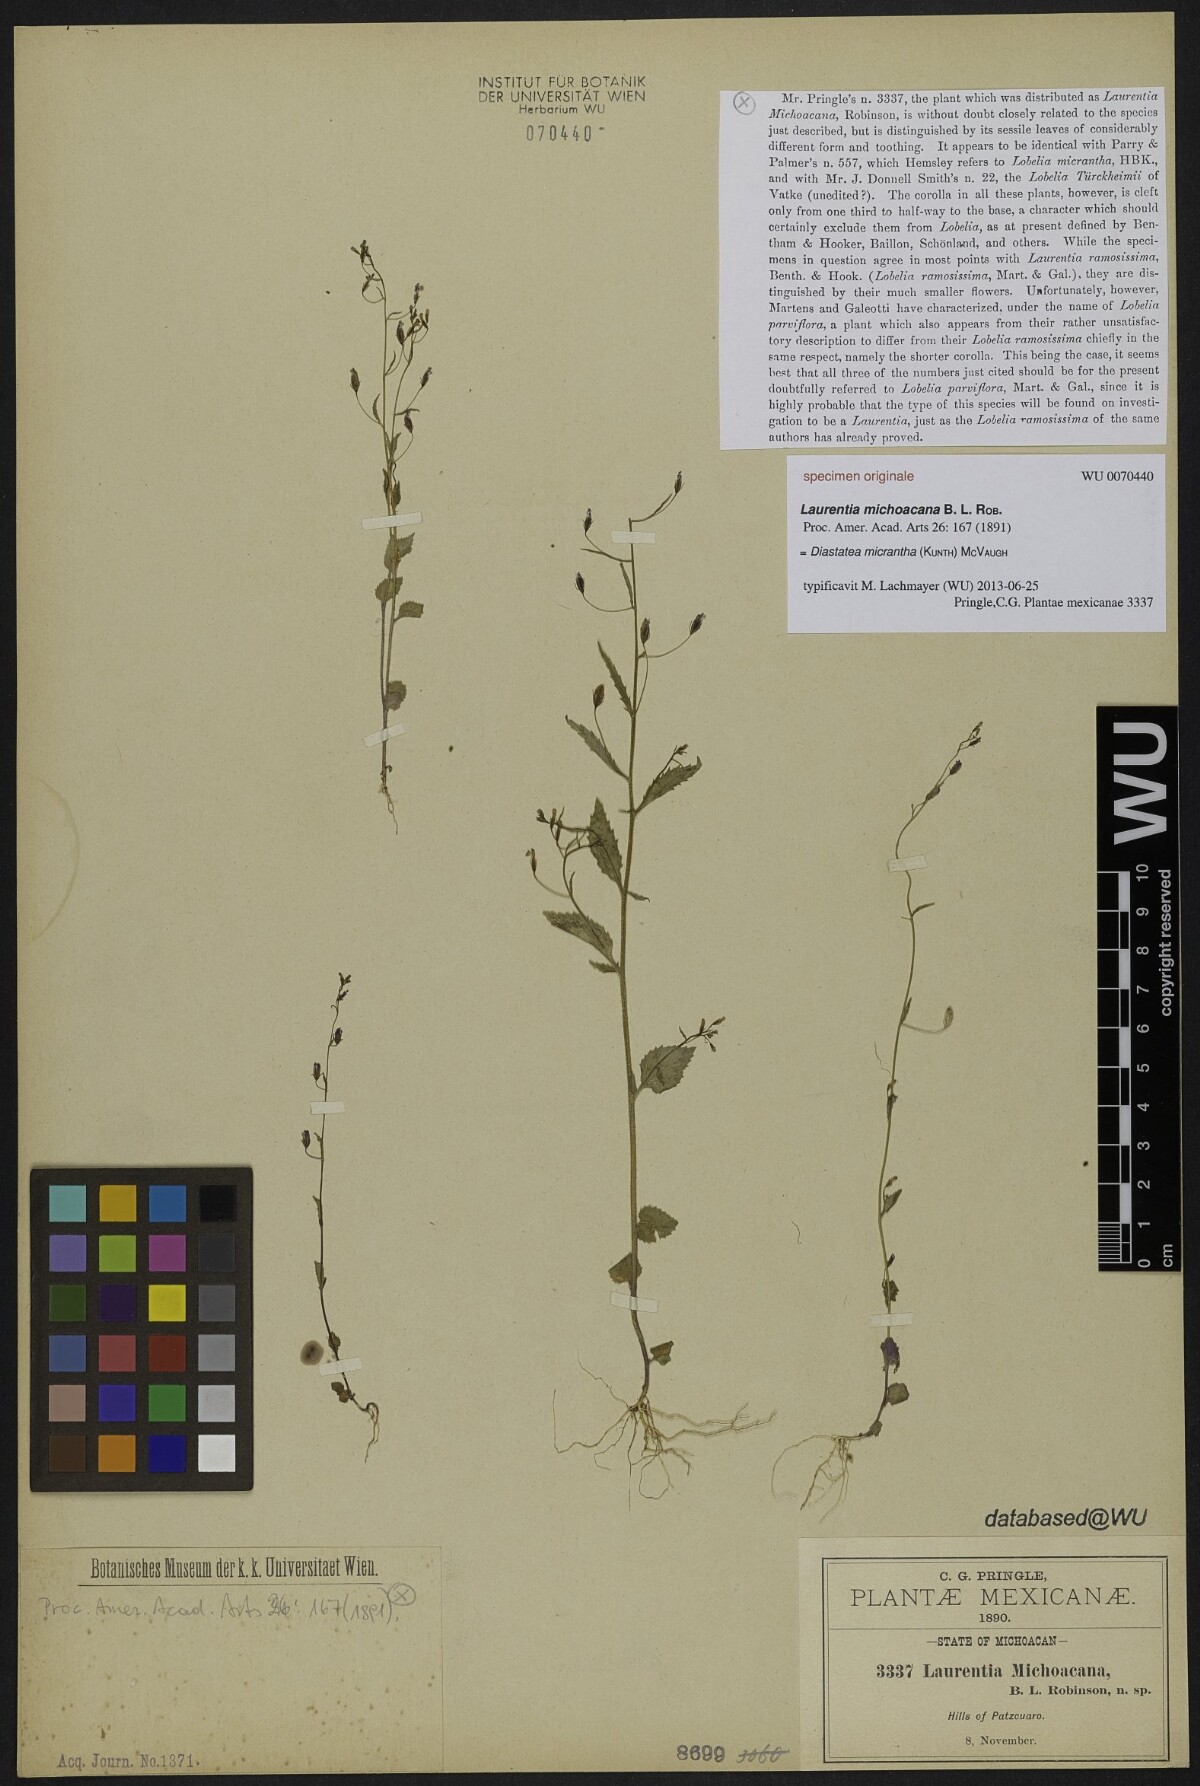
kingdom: Plantae
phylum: Tracheophyta
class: Magnoliopsida
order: Asterales
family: Campanulaceae
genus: Diastatea
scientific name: Diastatea micrantha
